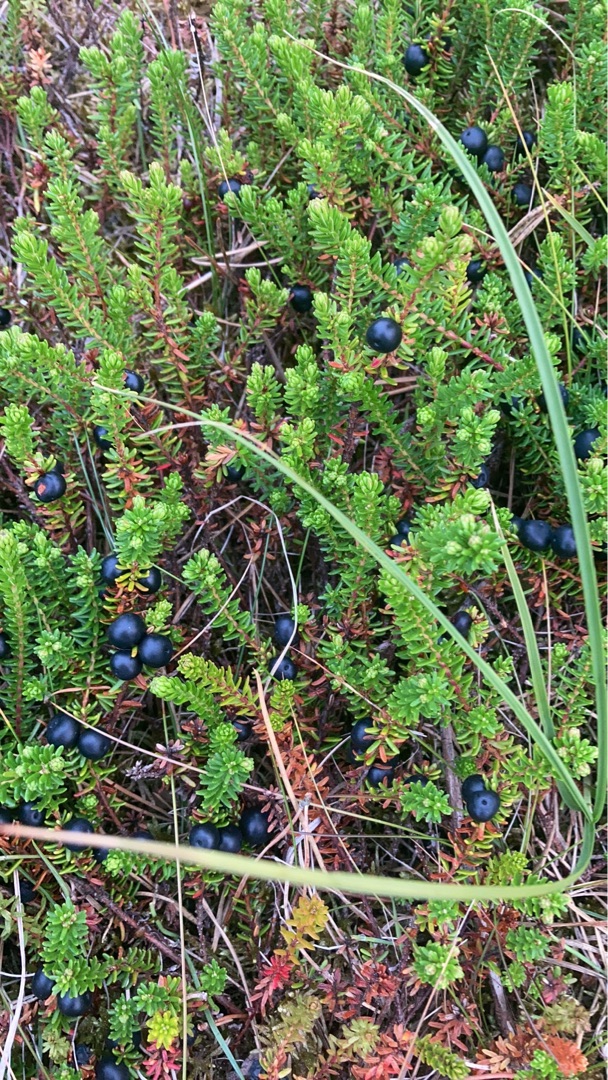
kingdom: Plantae
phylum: Tracheophyta
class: Magnoliopsida
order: Ericales
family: Ericaceae
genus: Empetrum
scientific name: Empetrum nigrum
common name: Revling
